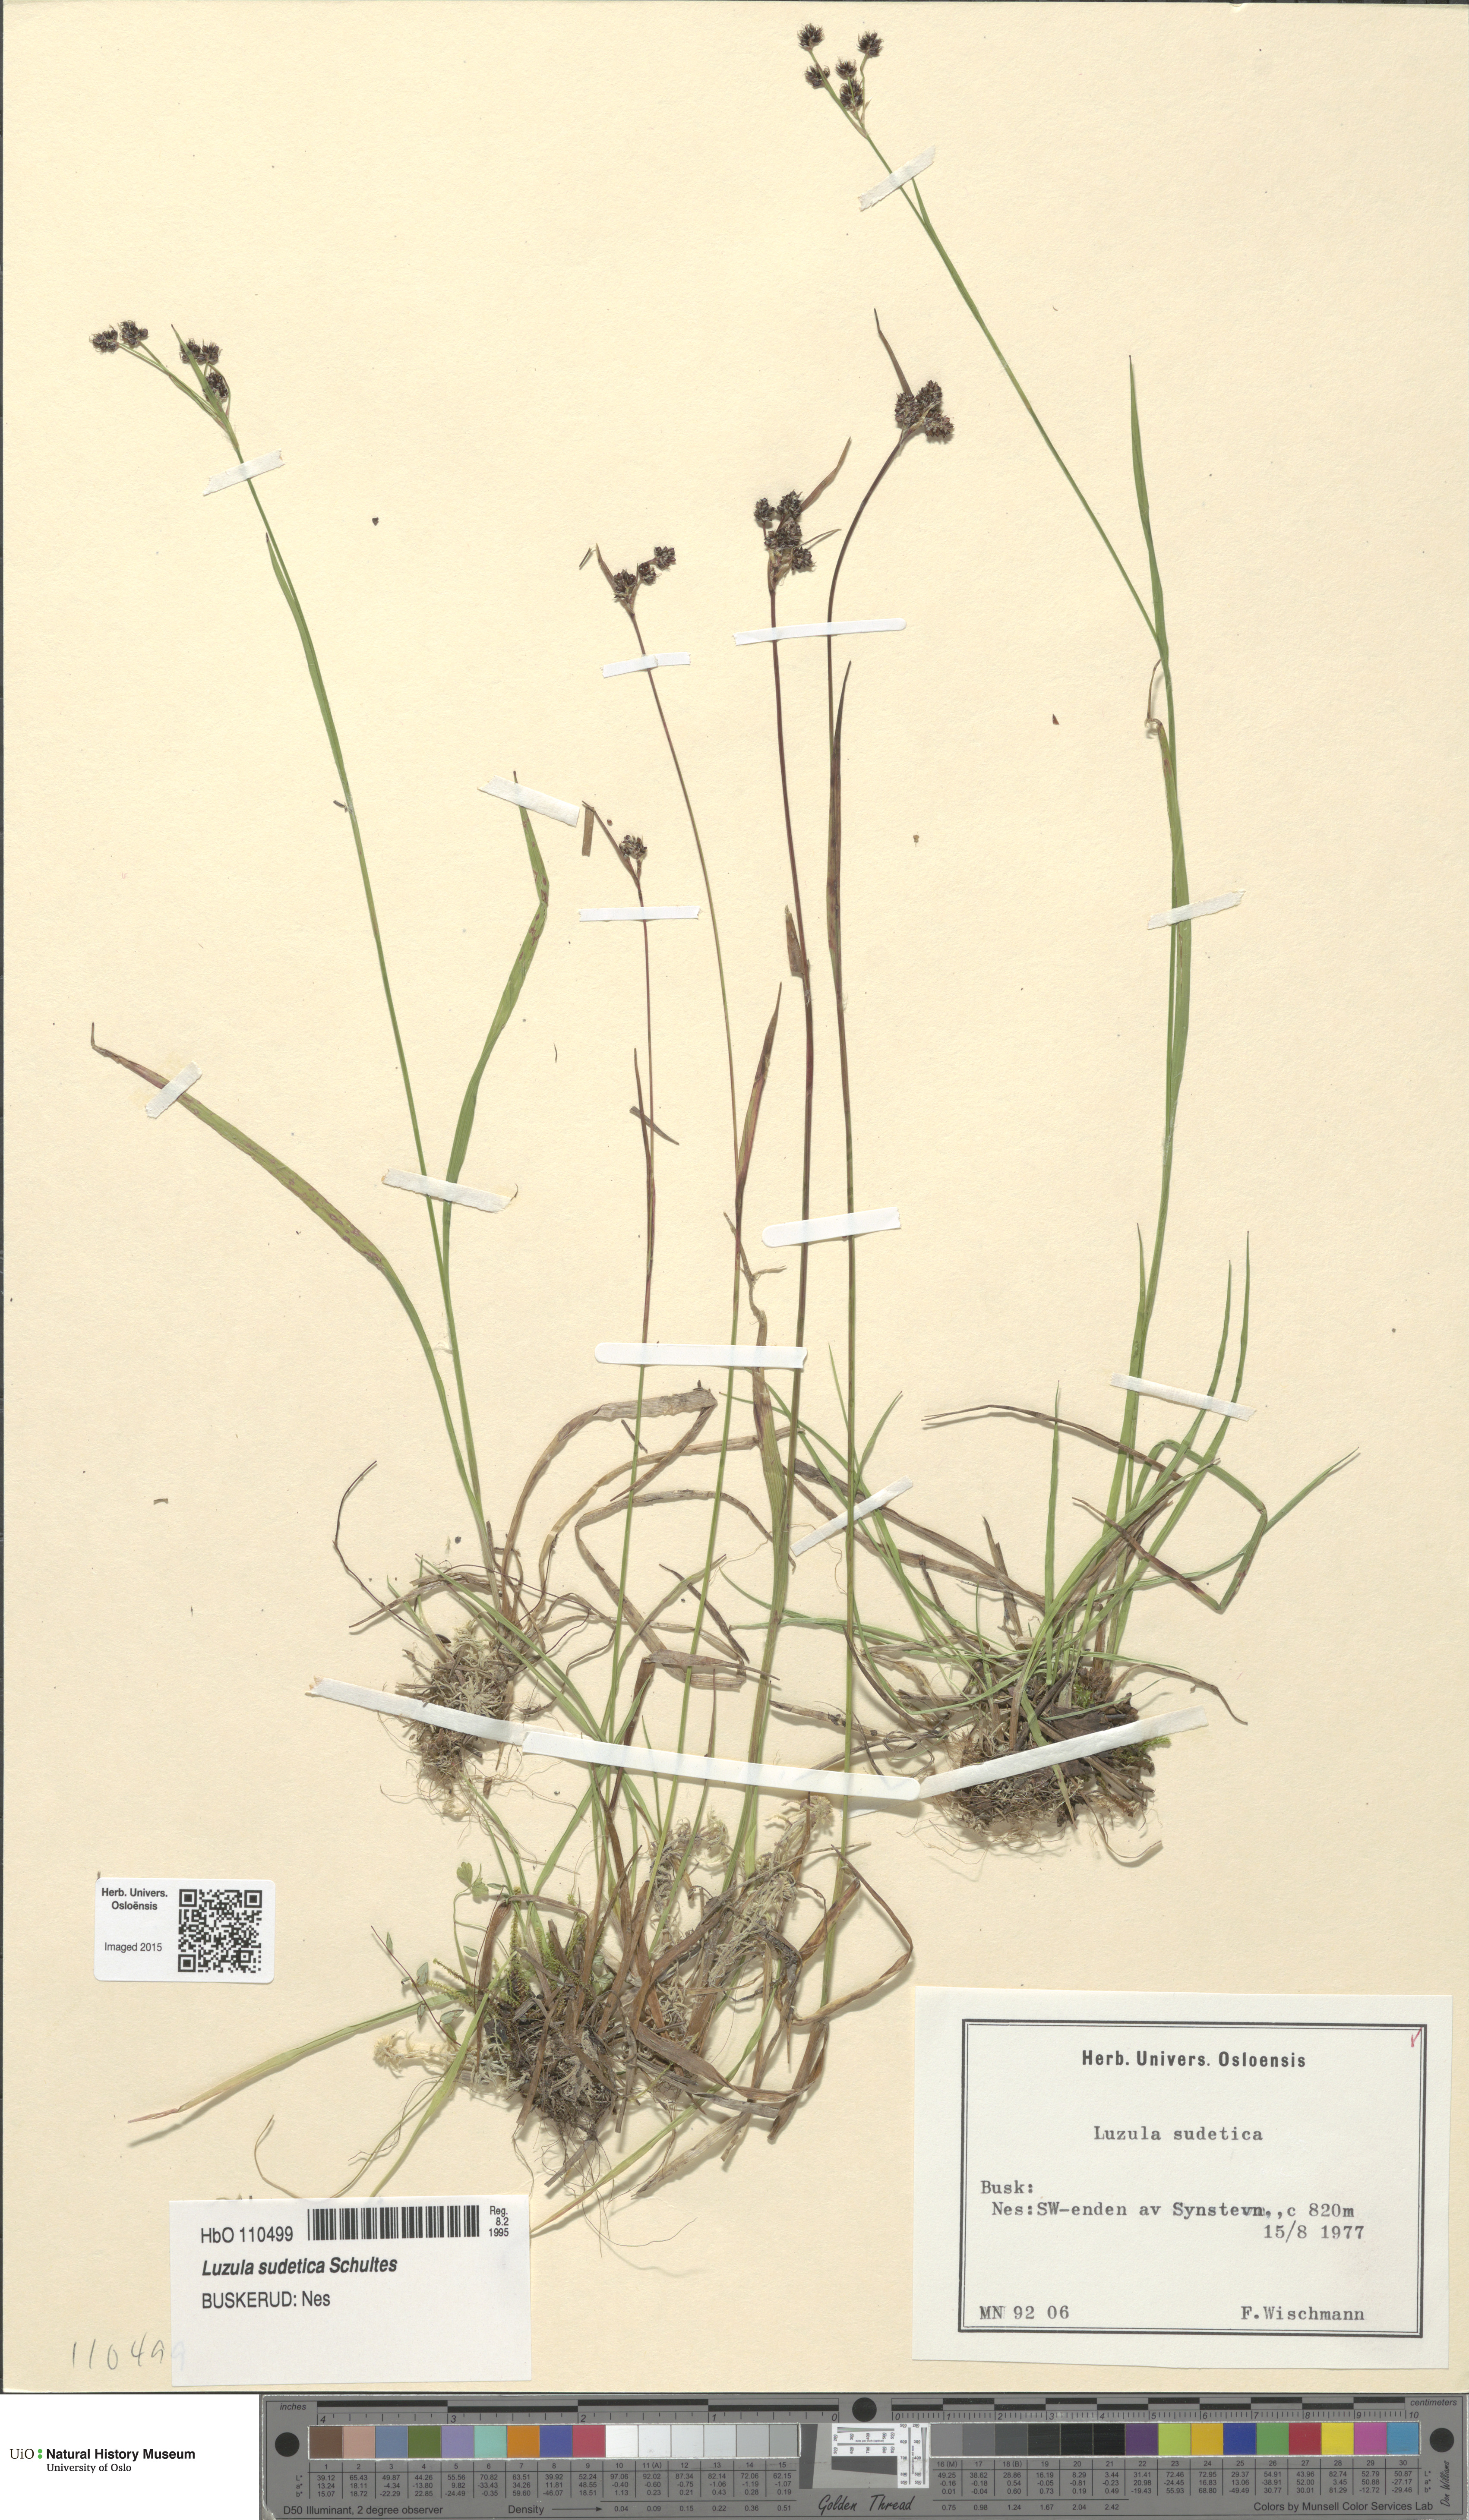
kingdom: Plantae
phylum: Tracheophyta
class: Liliopsida
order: Poales
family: Juncaceae
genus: Luzula
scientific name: Luzula sudetica
